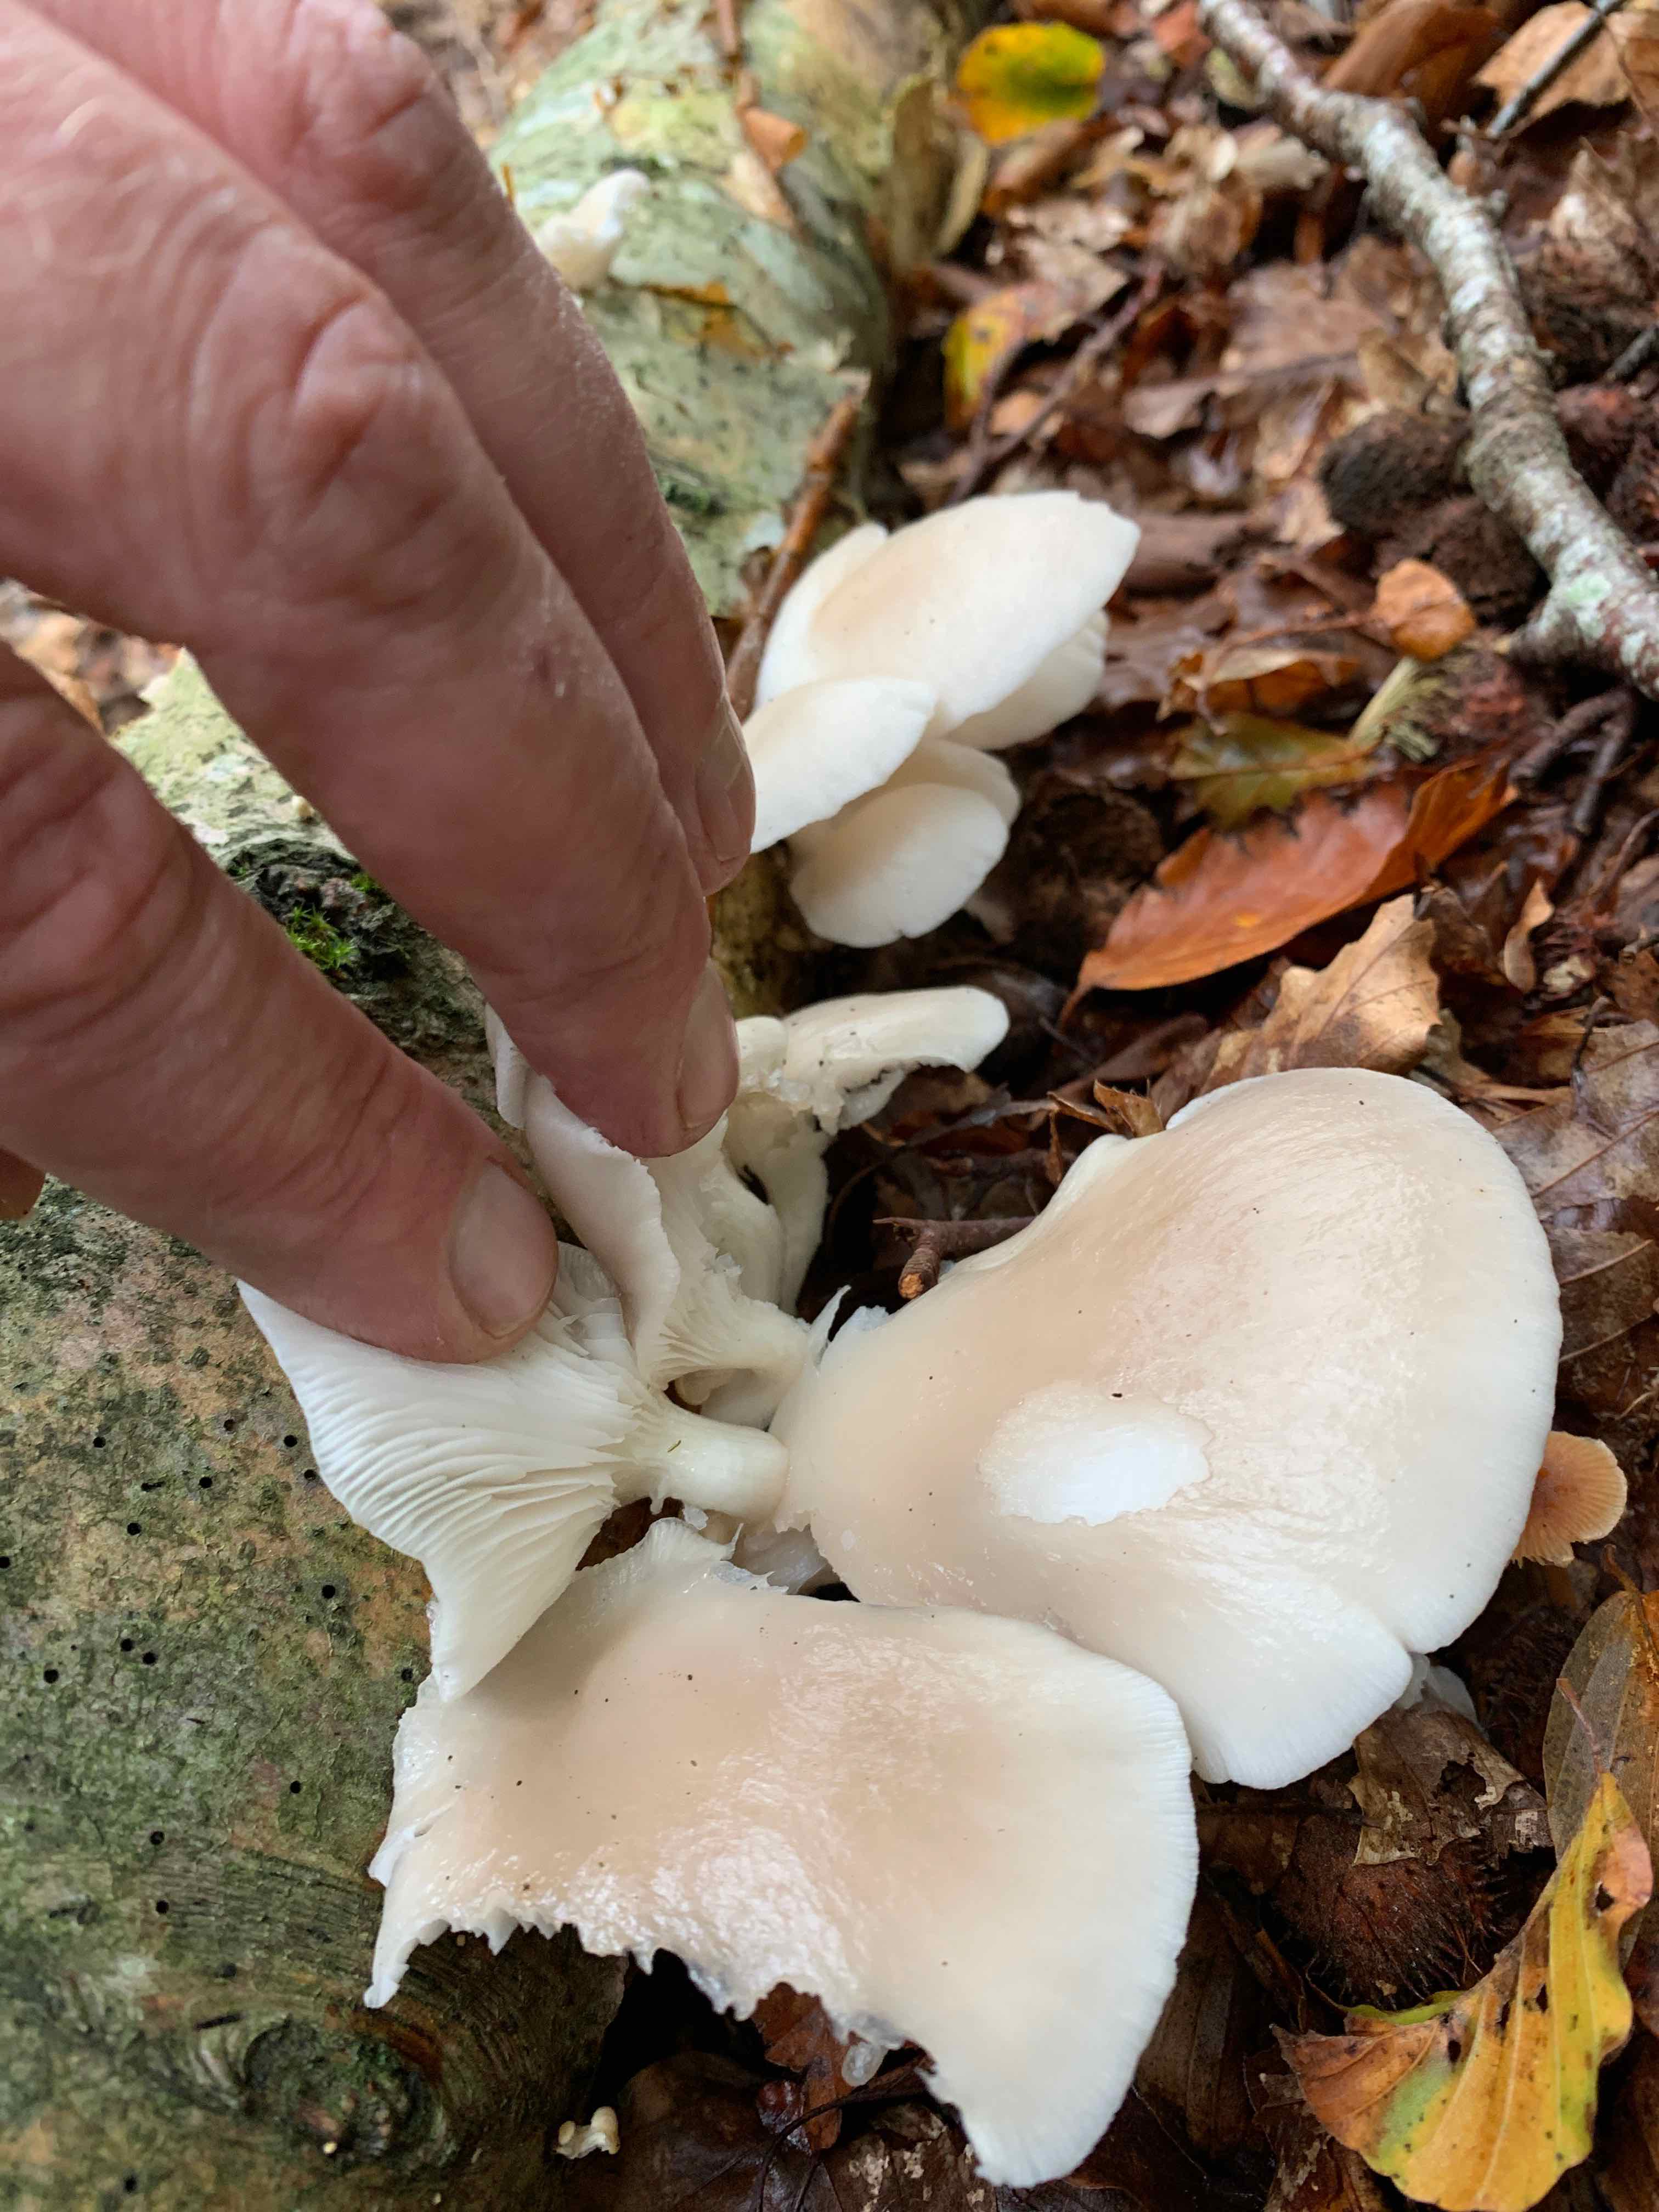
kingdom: Fungi
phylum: Basidiomycota
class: Agaricomycetes
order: Agaricales
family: Pleurotaceae
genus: Pleurotus
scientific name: Pleurotus pulmonarius
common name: sommer-østershat
